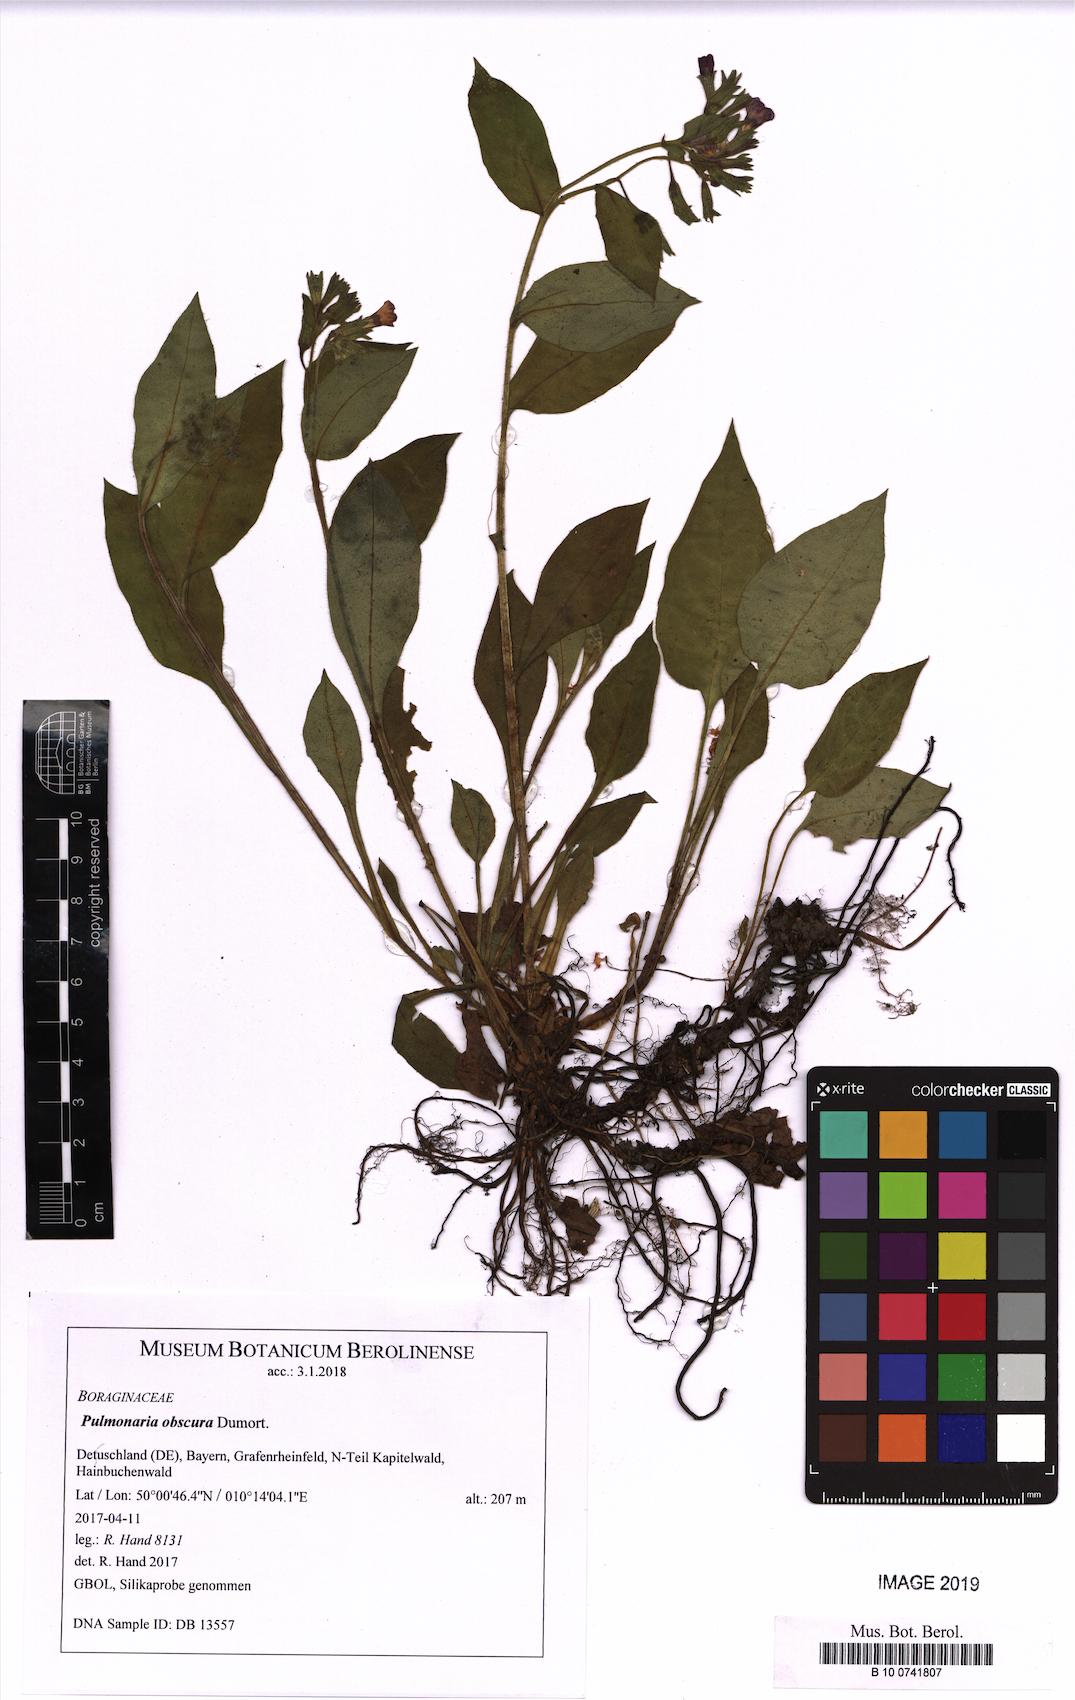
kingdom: Plantae
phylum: Tracheophyta
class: Magnoliopsida
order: Boraginales
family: Boraginaceae
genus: Pulmonaria
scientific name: Pulmonaria obscura
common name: Suffolk lungwort
